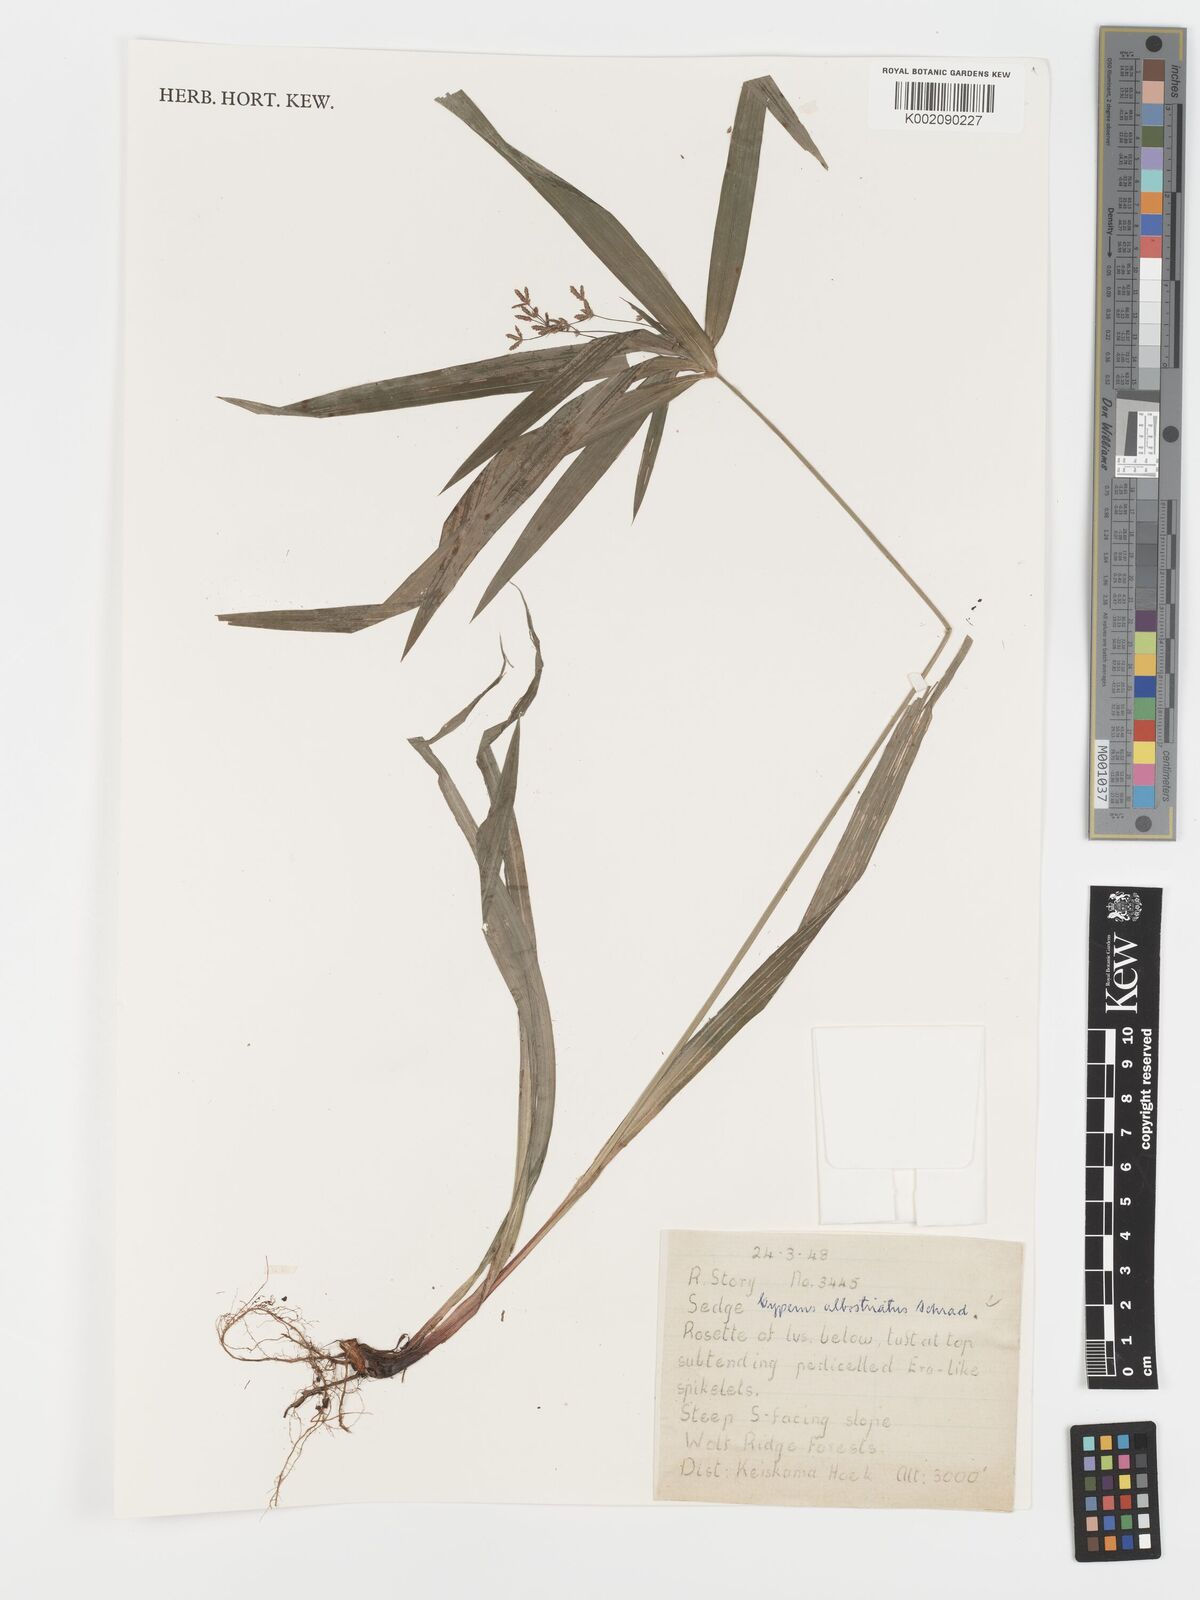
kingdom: Plantae
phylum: Tracheophyta
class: Liliopsida
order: Poales
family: Cyperaceae
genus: Cyperus
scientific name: Cyperus albostriatus
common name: Dwarf umbrella-grass
